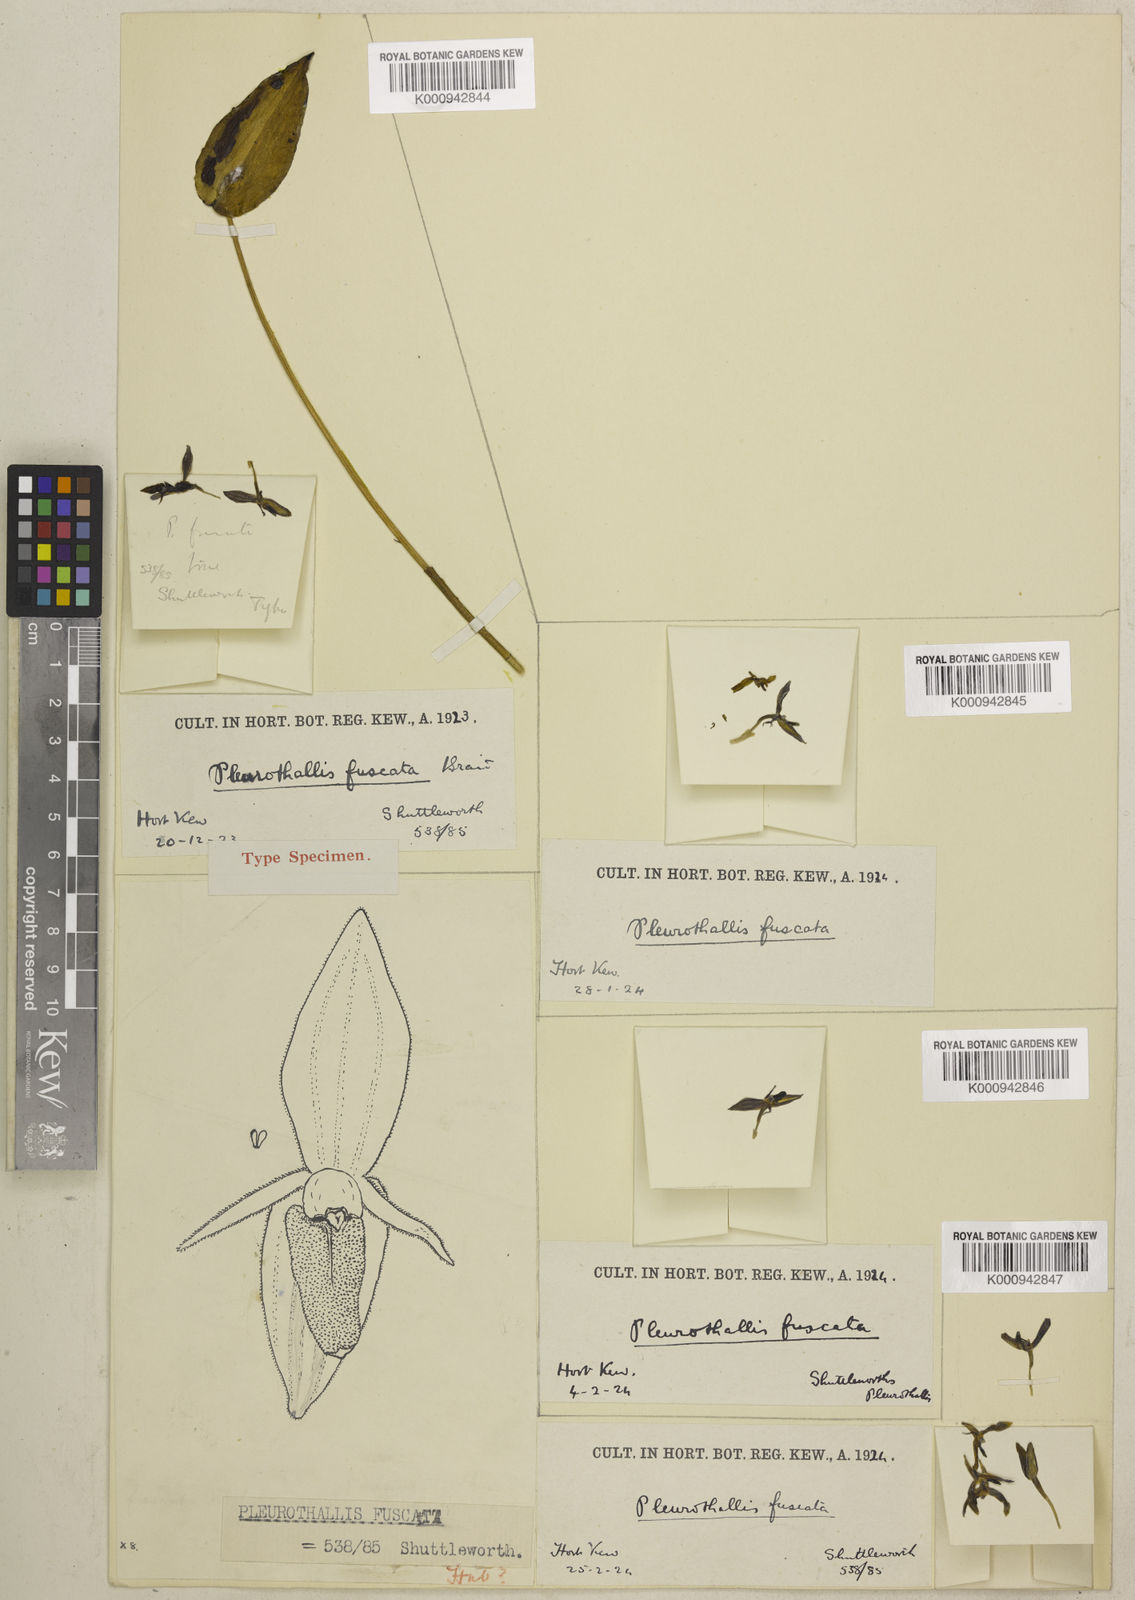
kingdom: Plantae
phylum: Tracheophyta
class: Liliopsida
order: Asparagales
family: Orchidaceae
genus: Pleurothallis
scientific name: Pleurothallis bivalvis
